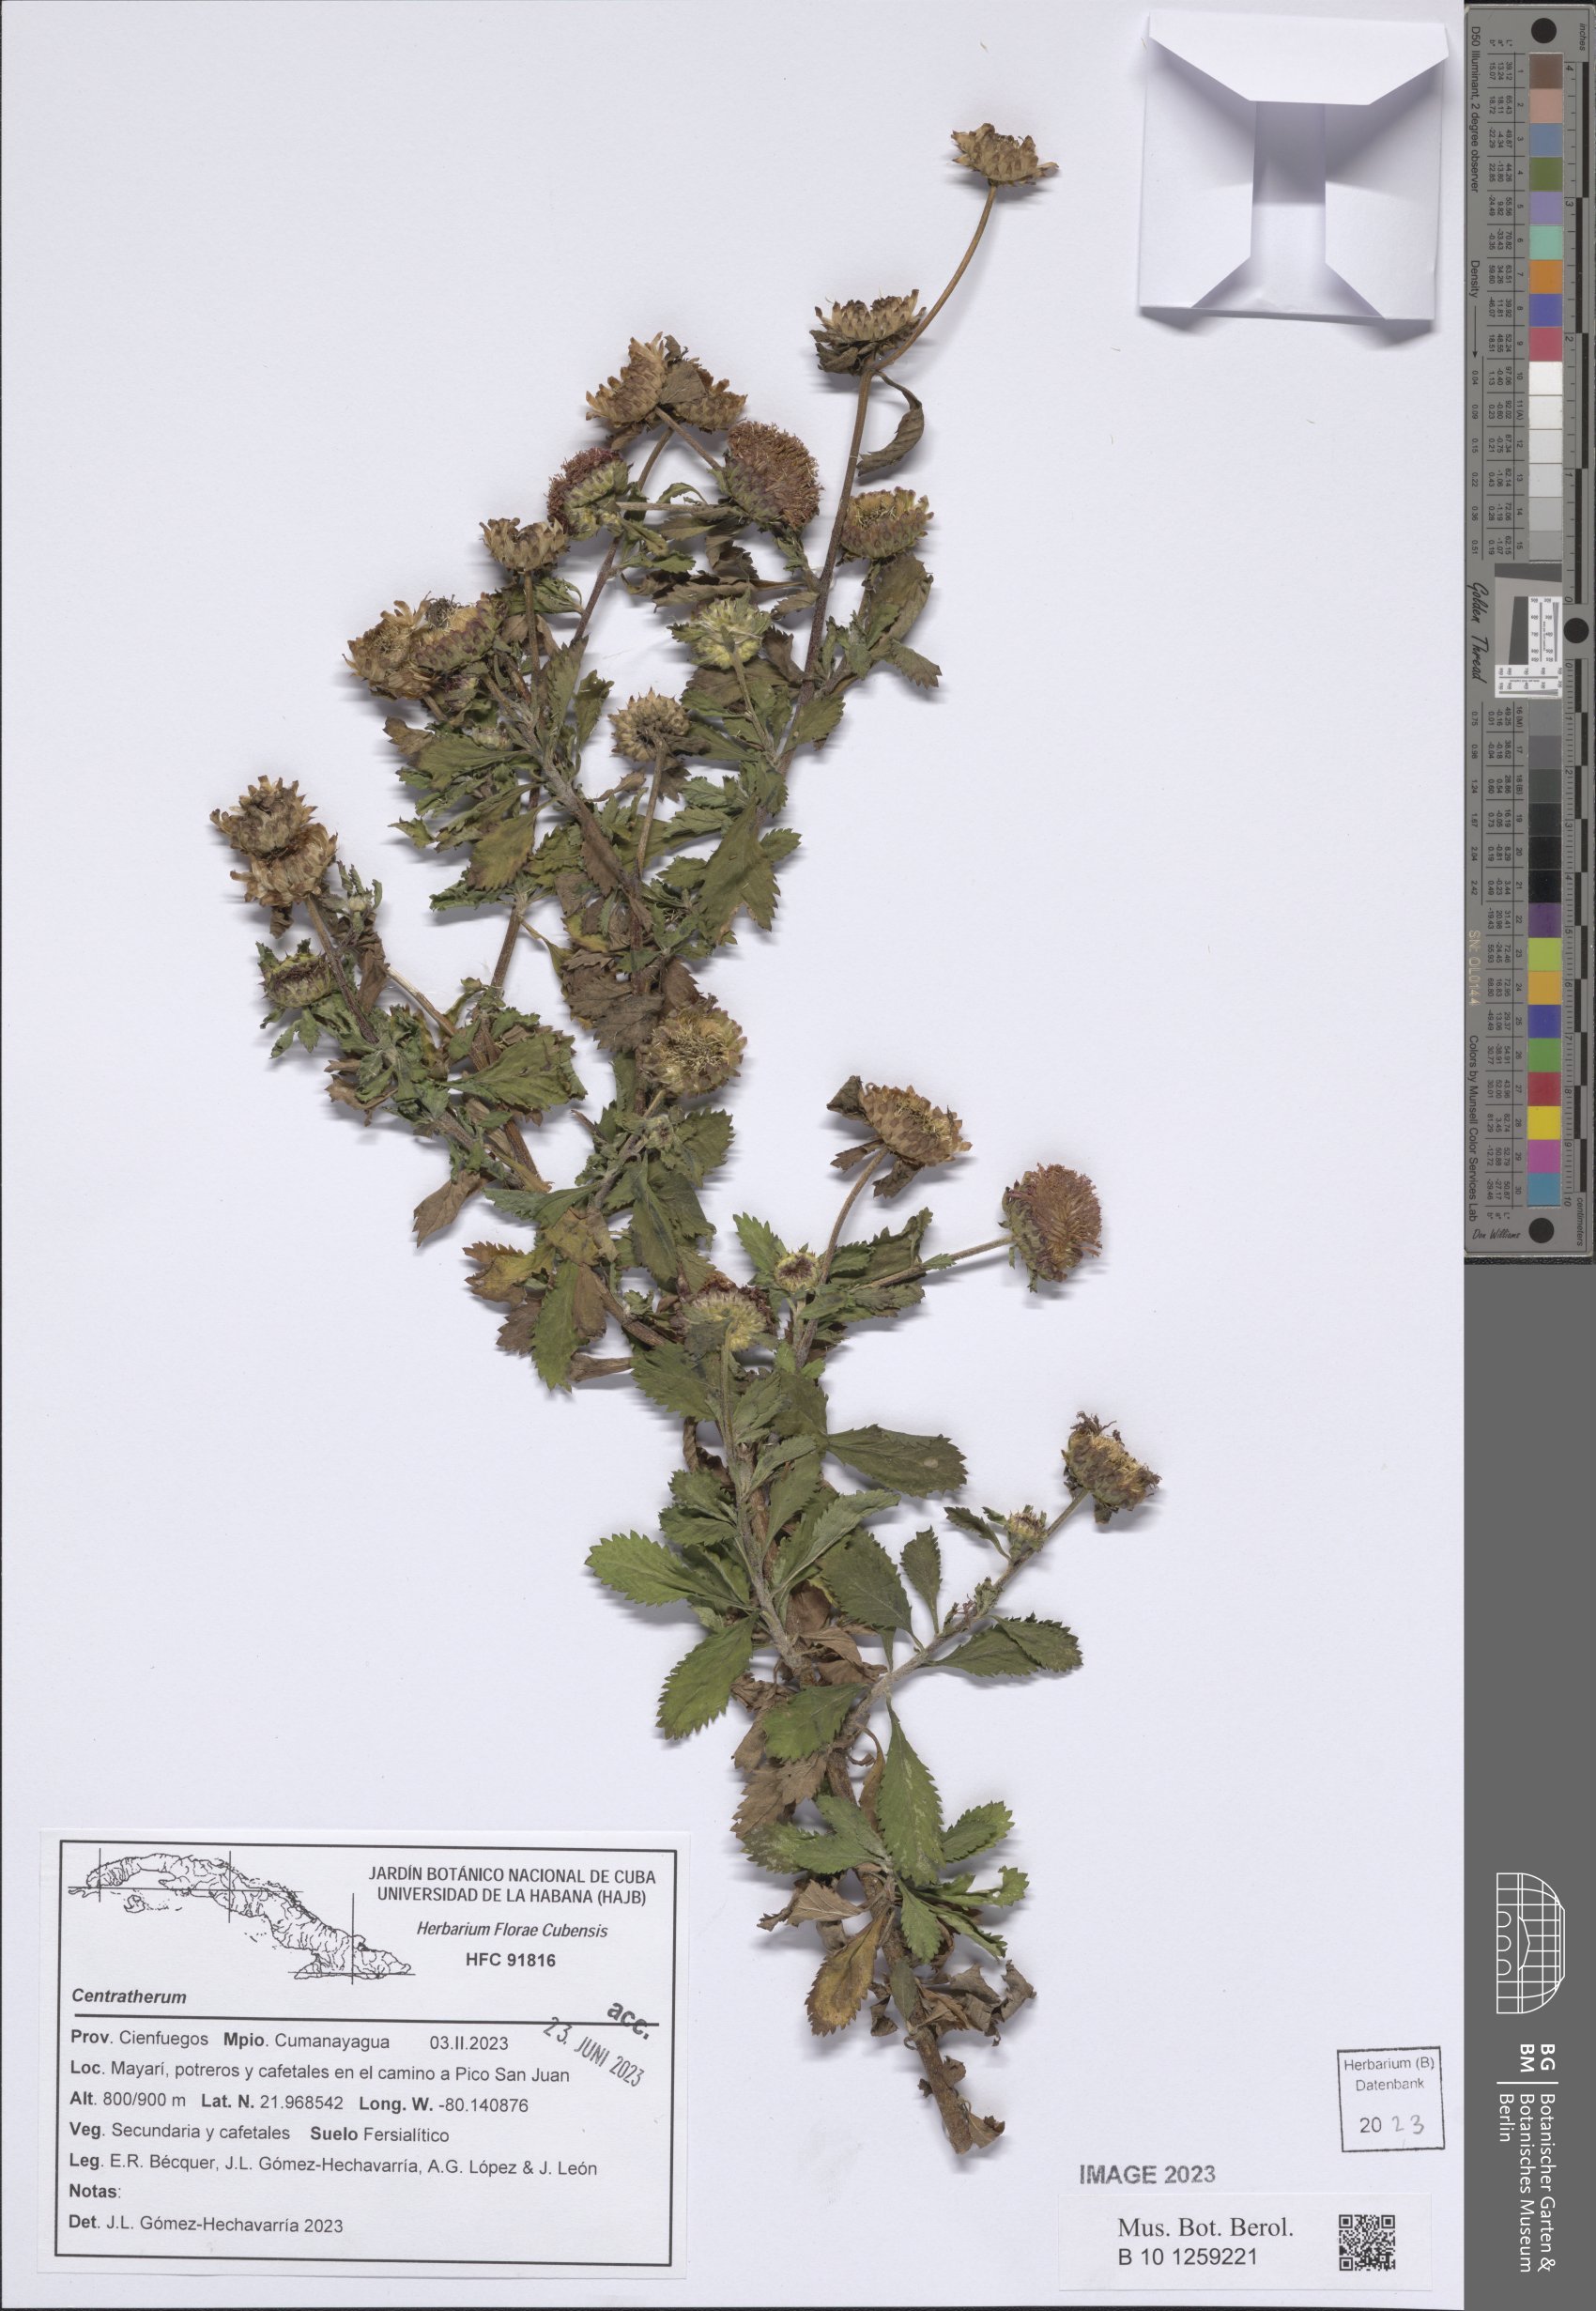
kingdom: Plantae
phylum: Tracheophyta
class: Magnoliopsida
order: Asterales
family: Asteraceae
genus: Centratherum
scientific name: Centratherum
